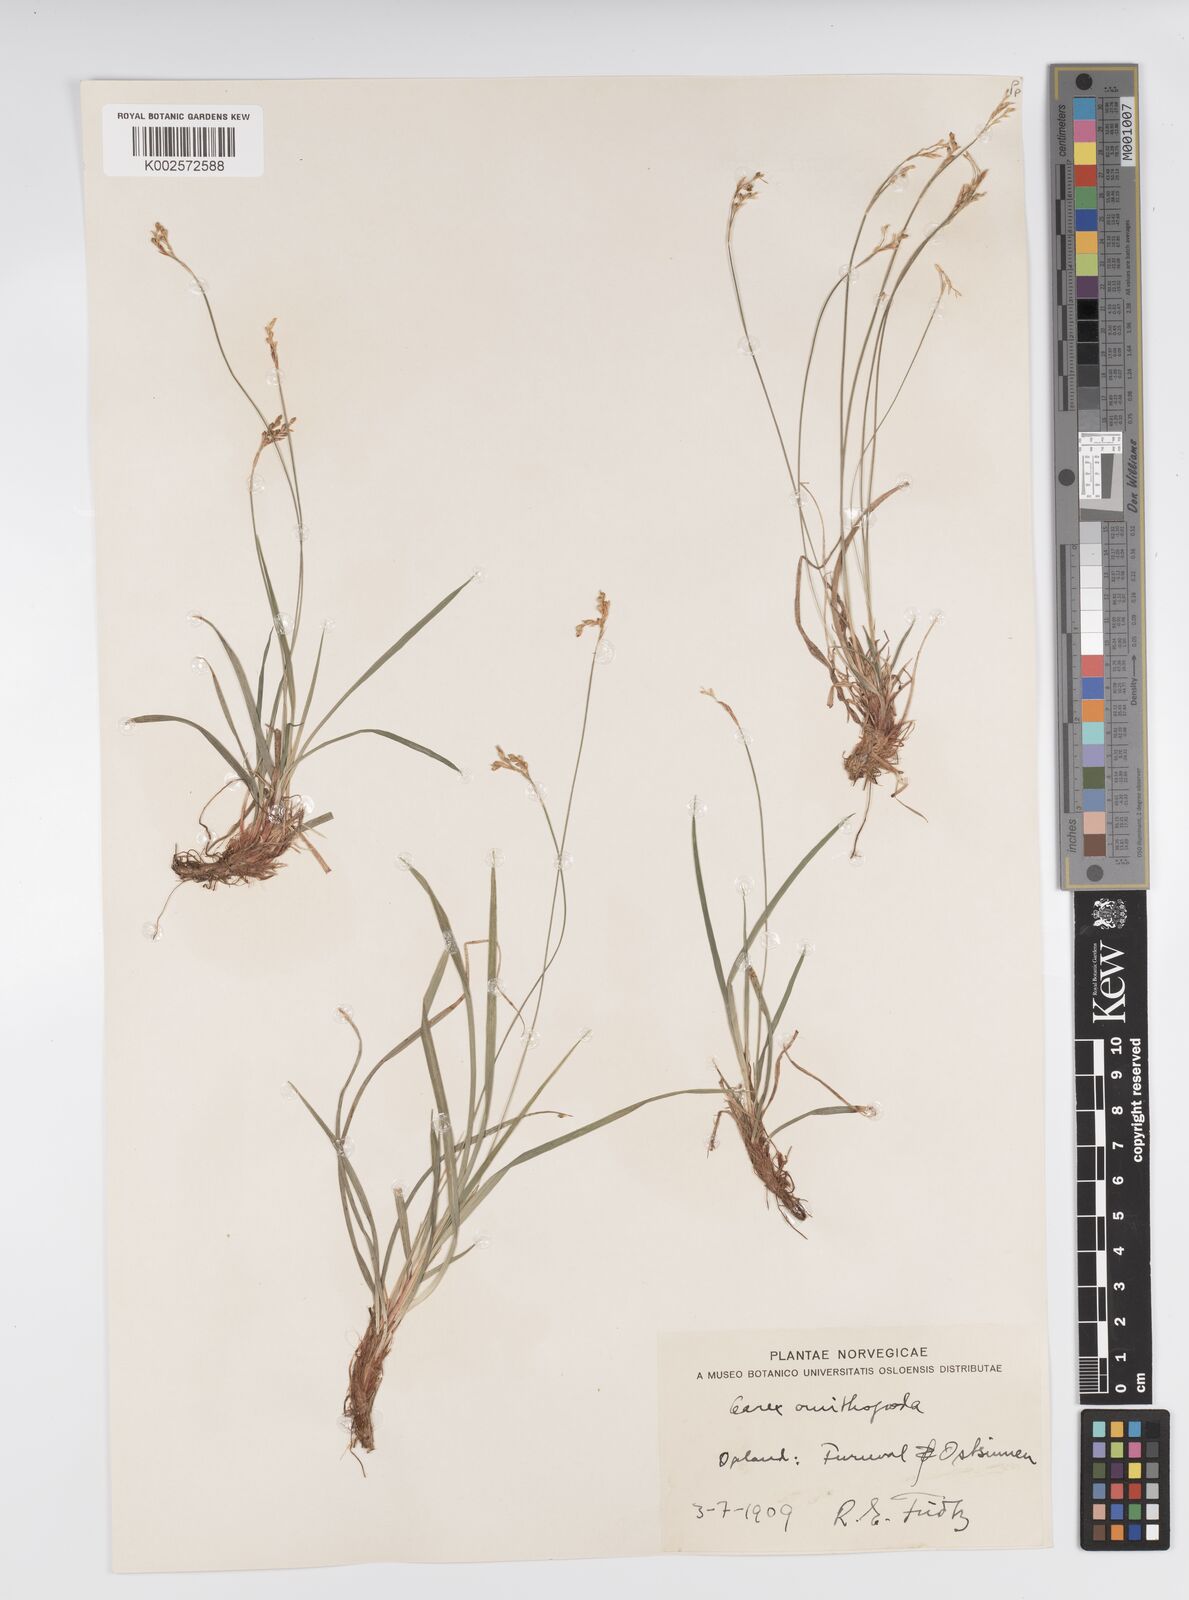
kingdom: Plantae
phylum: Tracheophyta
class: Liliopsida
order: Poales
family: Cyperaceae
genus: Carex
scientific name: Carex ornithopoda
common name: Bird's-foot sedge
